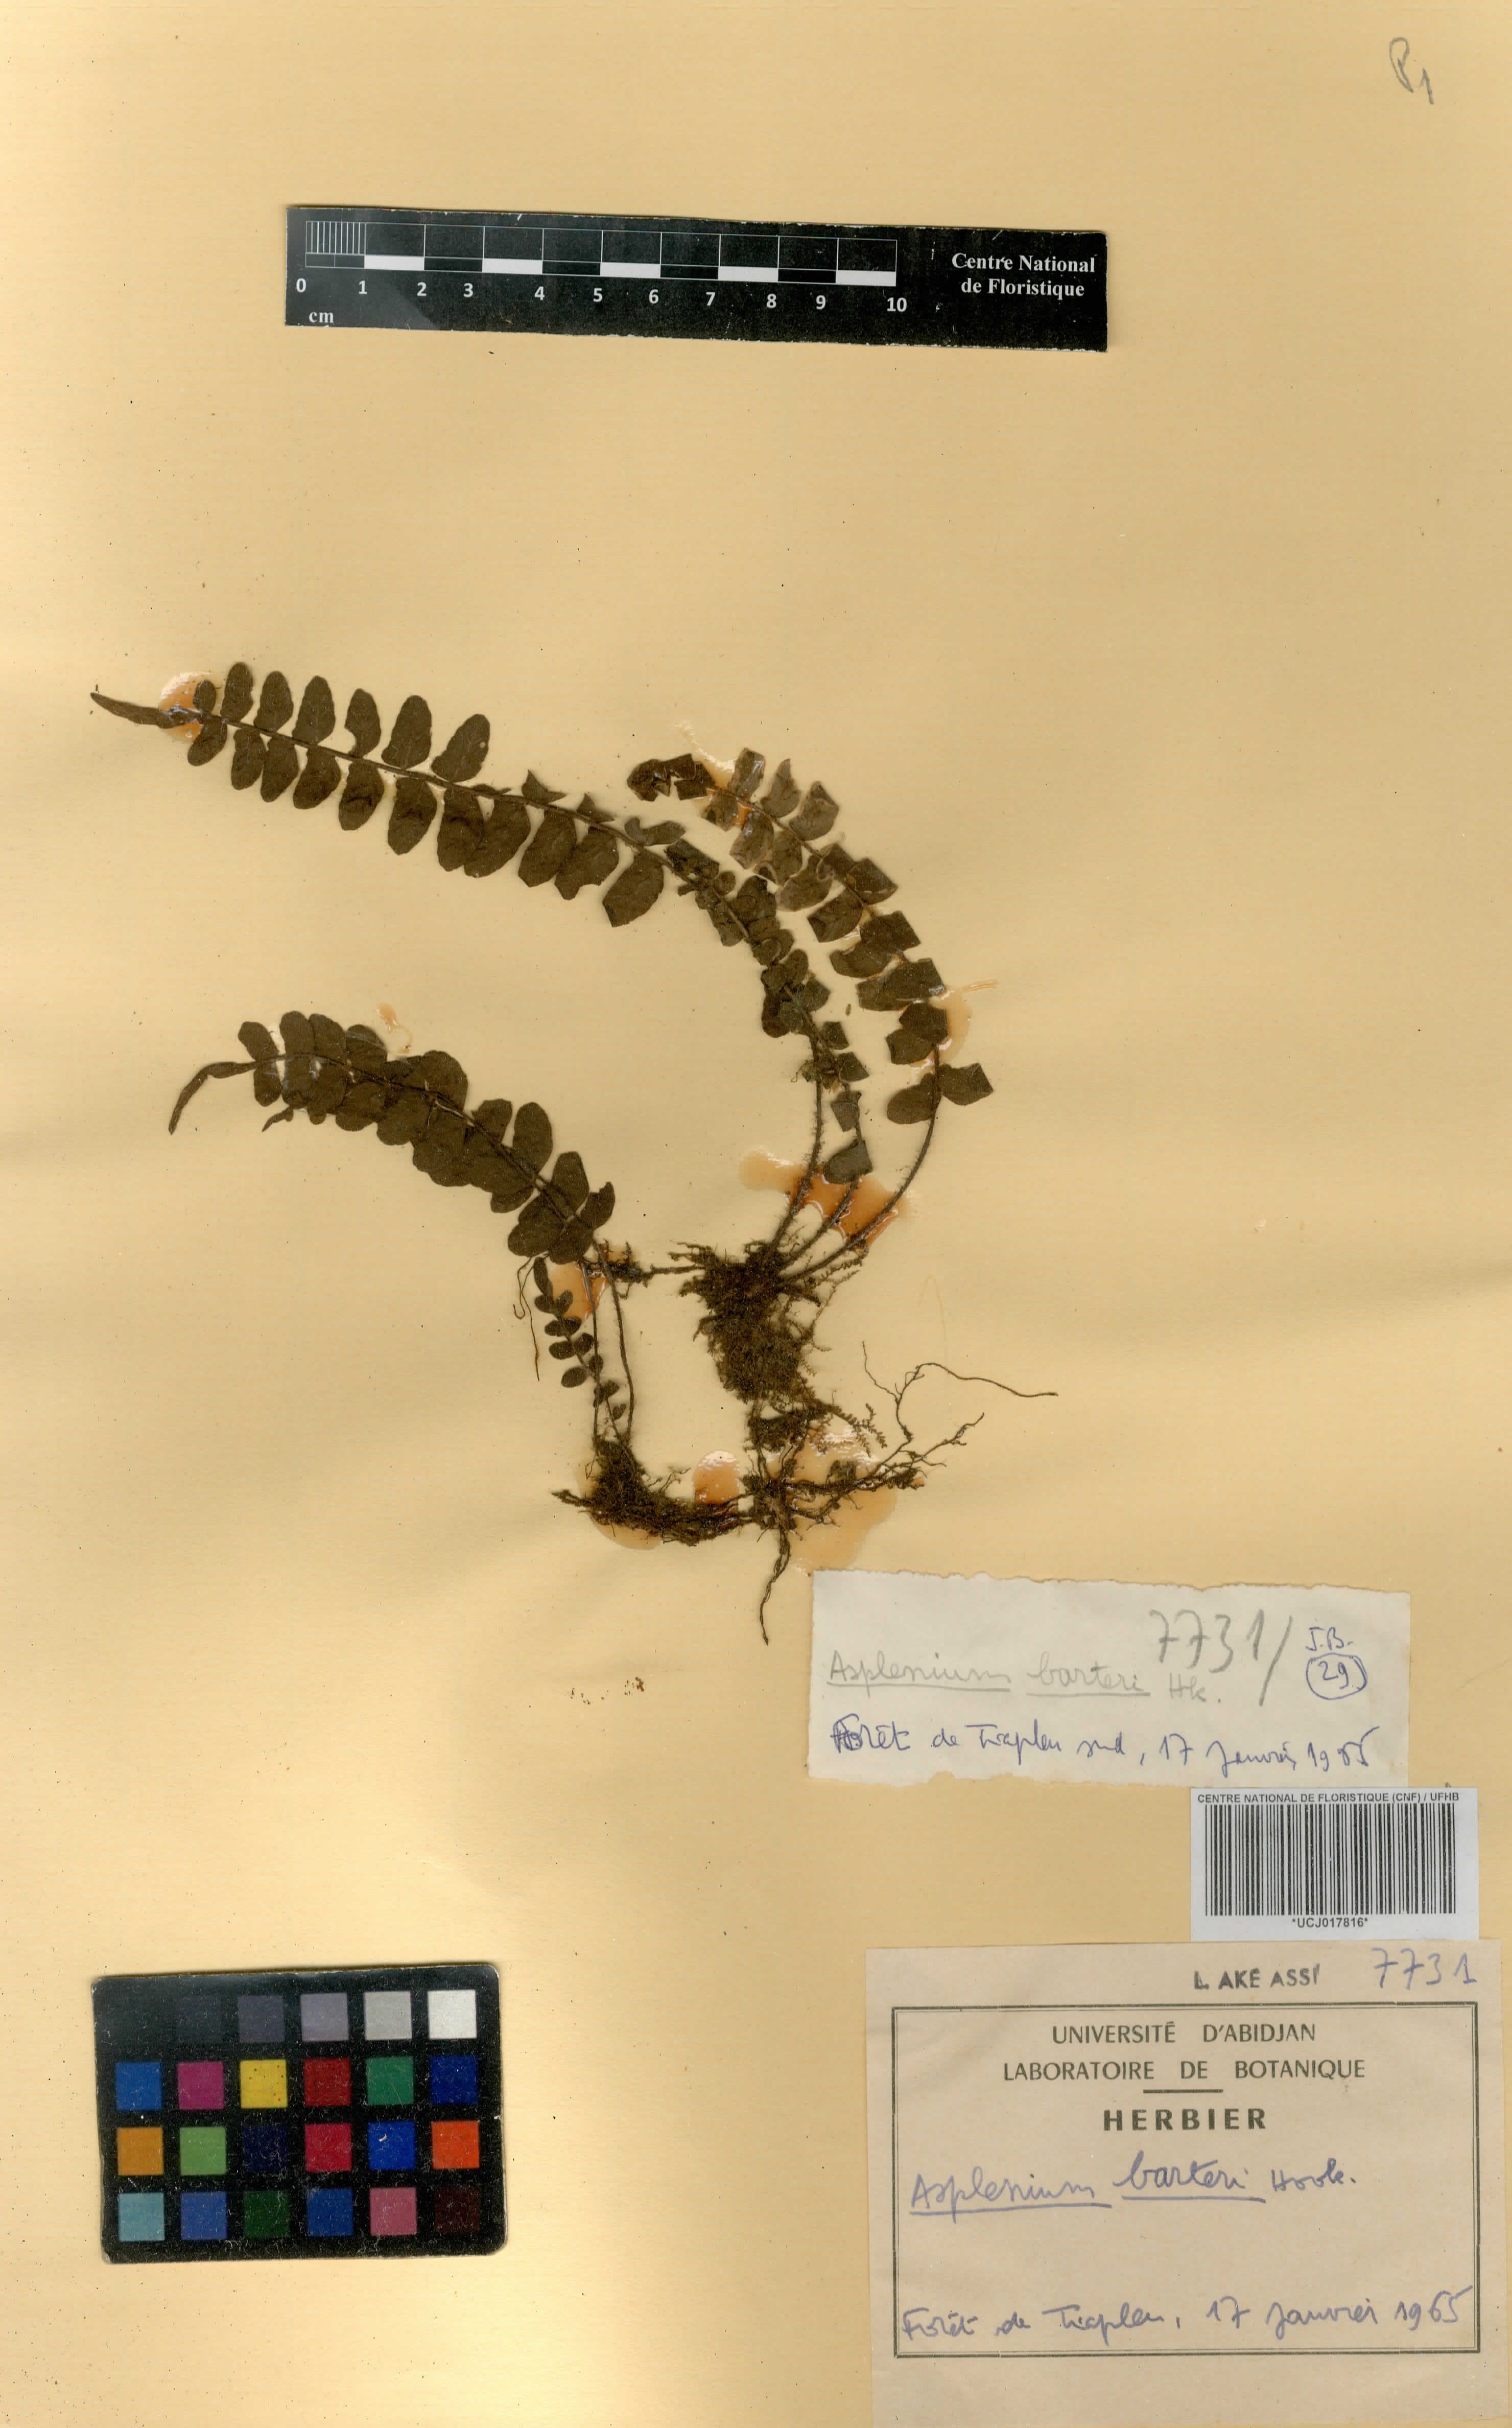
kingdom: Plantae
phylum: Tracheophyta
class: Polypodiopsida
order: Polypodiales
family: Aspleniaceae
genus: Asplenium
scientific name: Asplenium barteri
